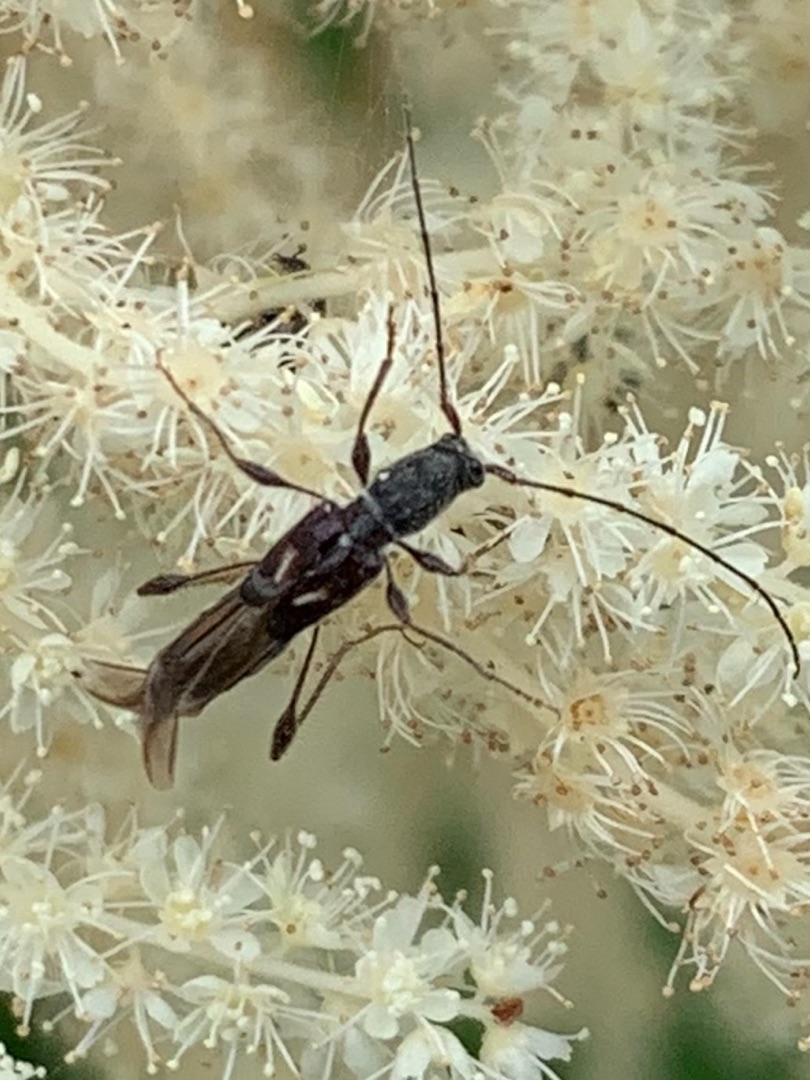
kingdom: Animalia
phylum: Arthropoda
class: Insecta
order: Coleoptera
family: Cerambycidae
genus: Molorchus
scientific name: Molorchus minor
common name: Fluebuk
